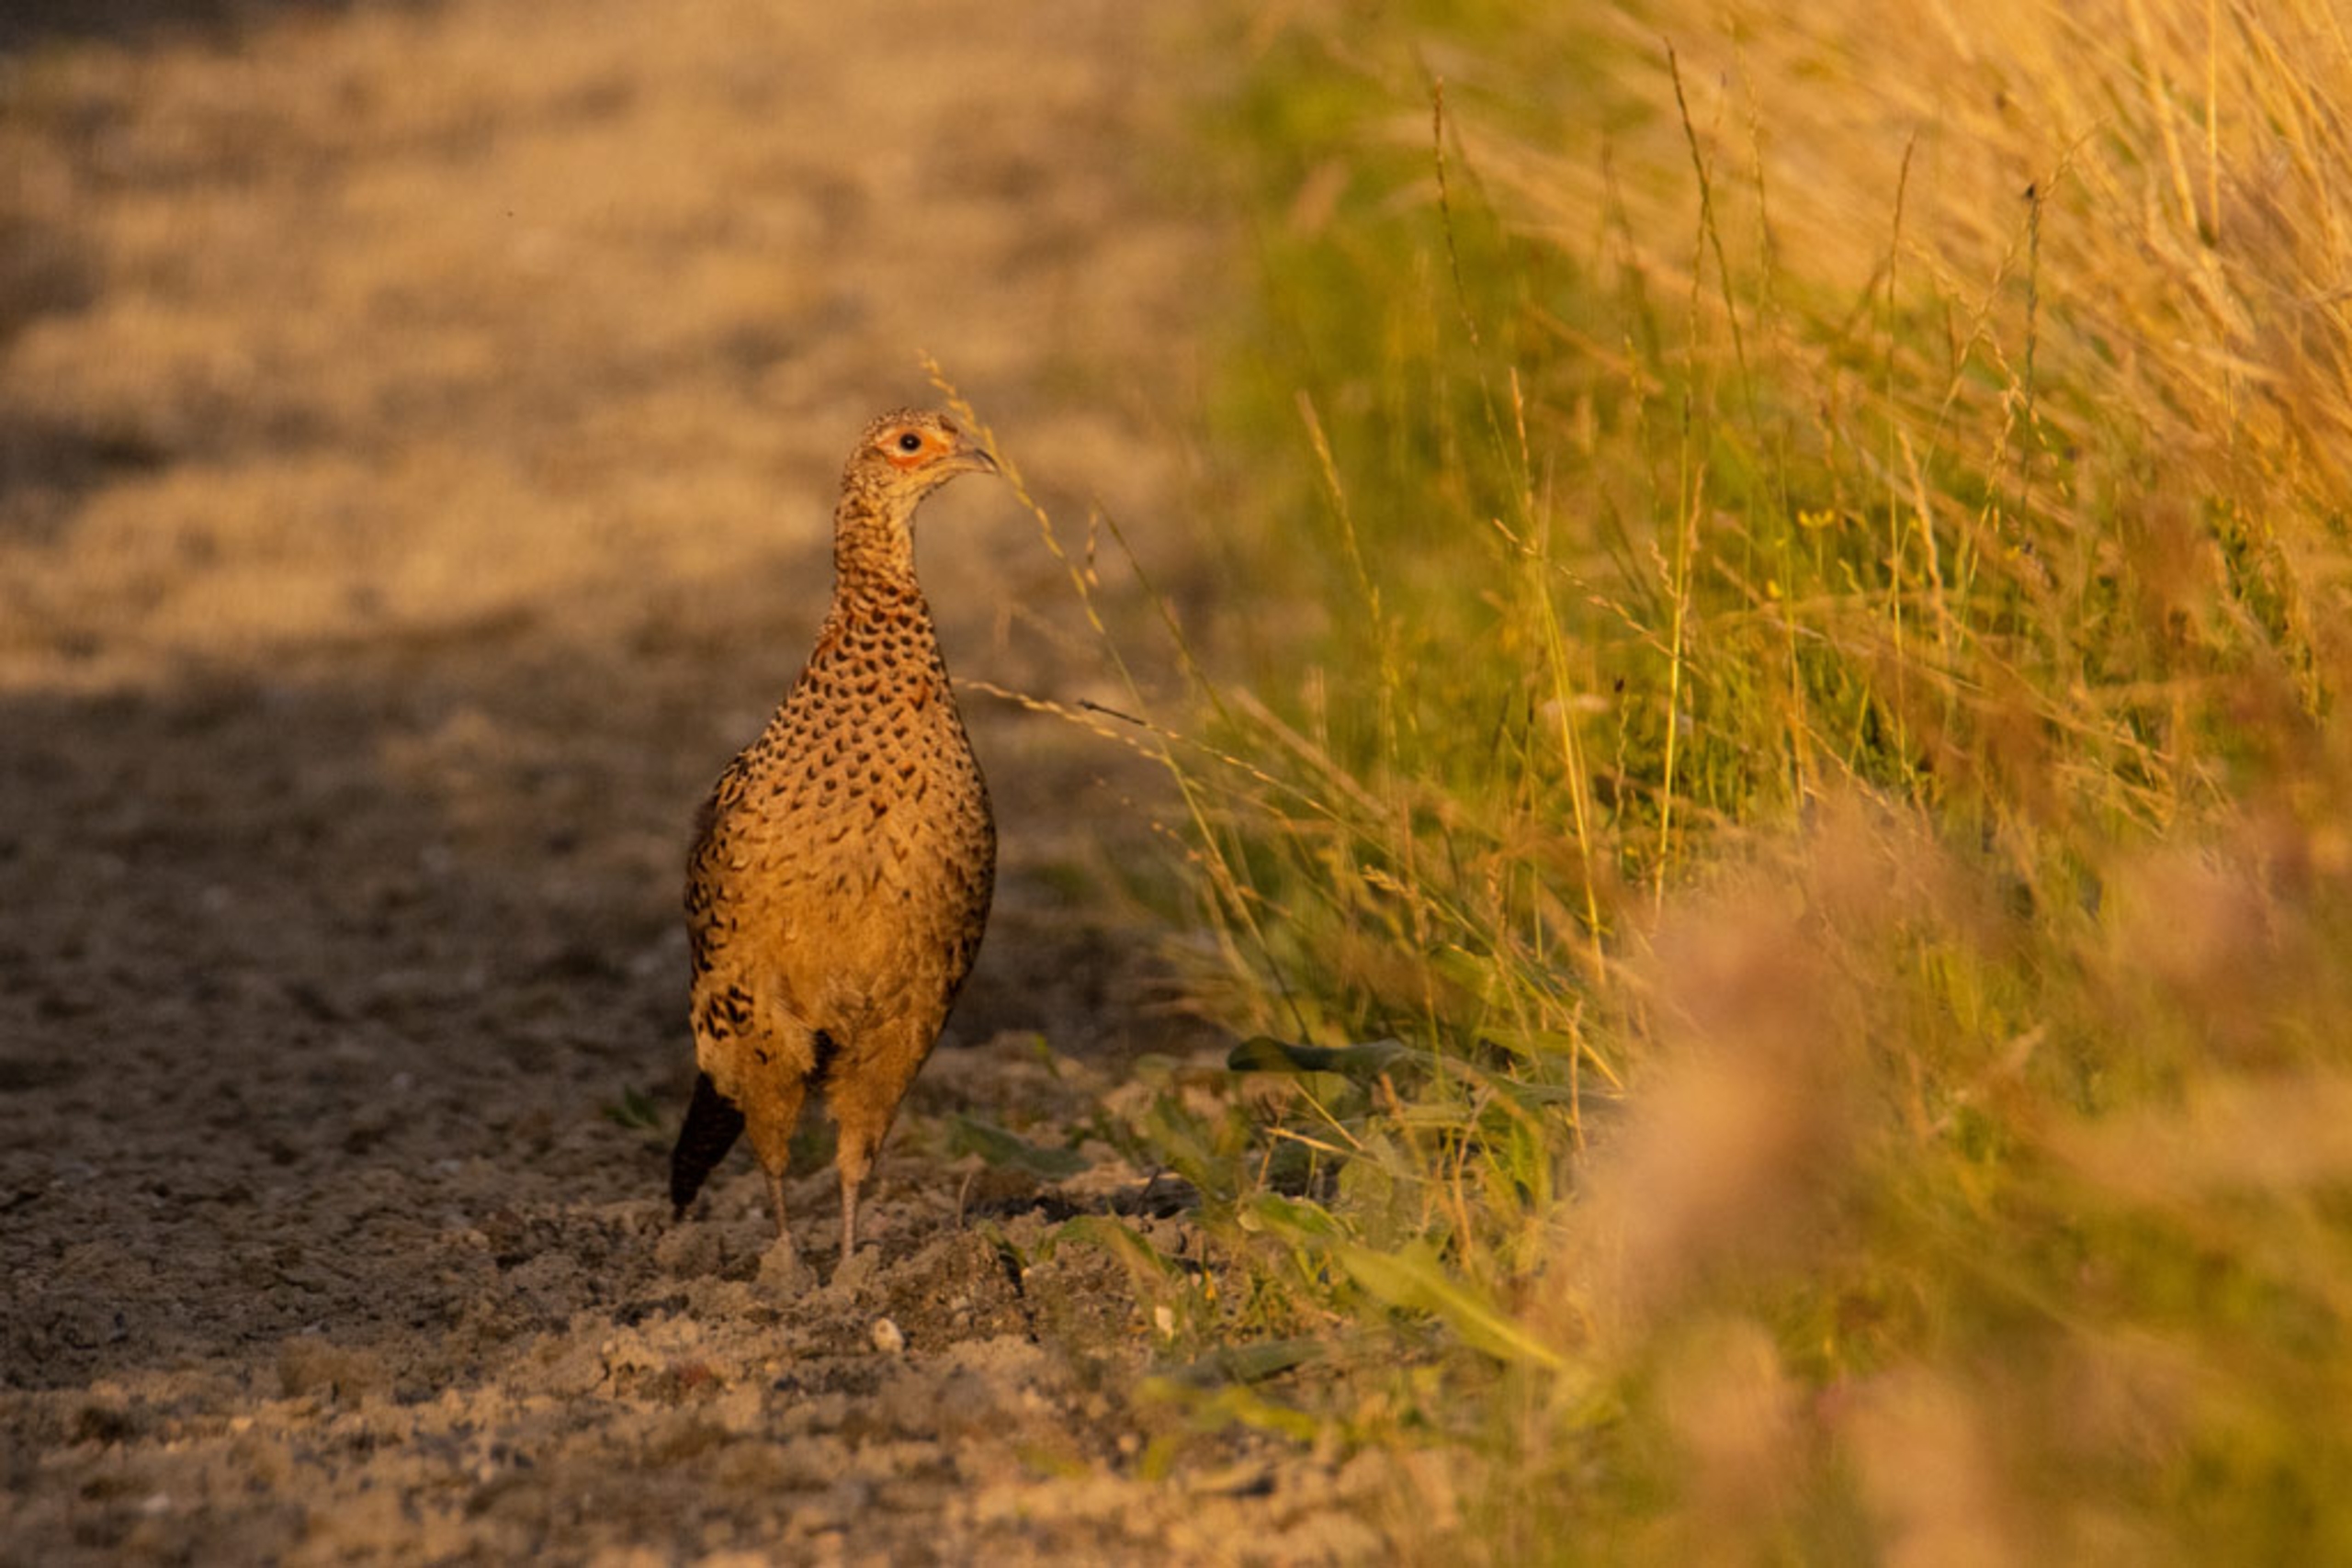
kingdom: Animalia
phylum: Chordata
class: Aves
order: Galliformes
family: Phasianidae
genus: Phasianus
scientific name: Phasianus colchicus
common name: Fasan
